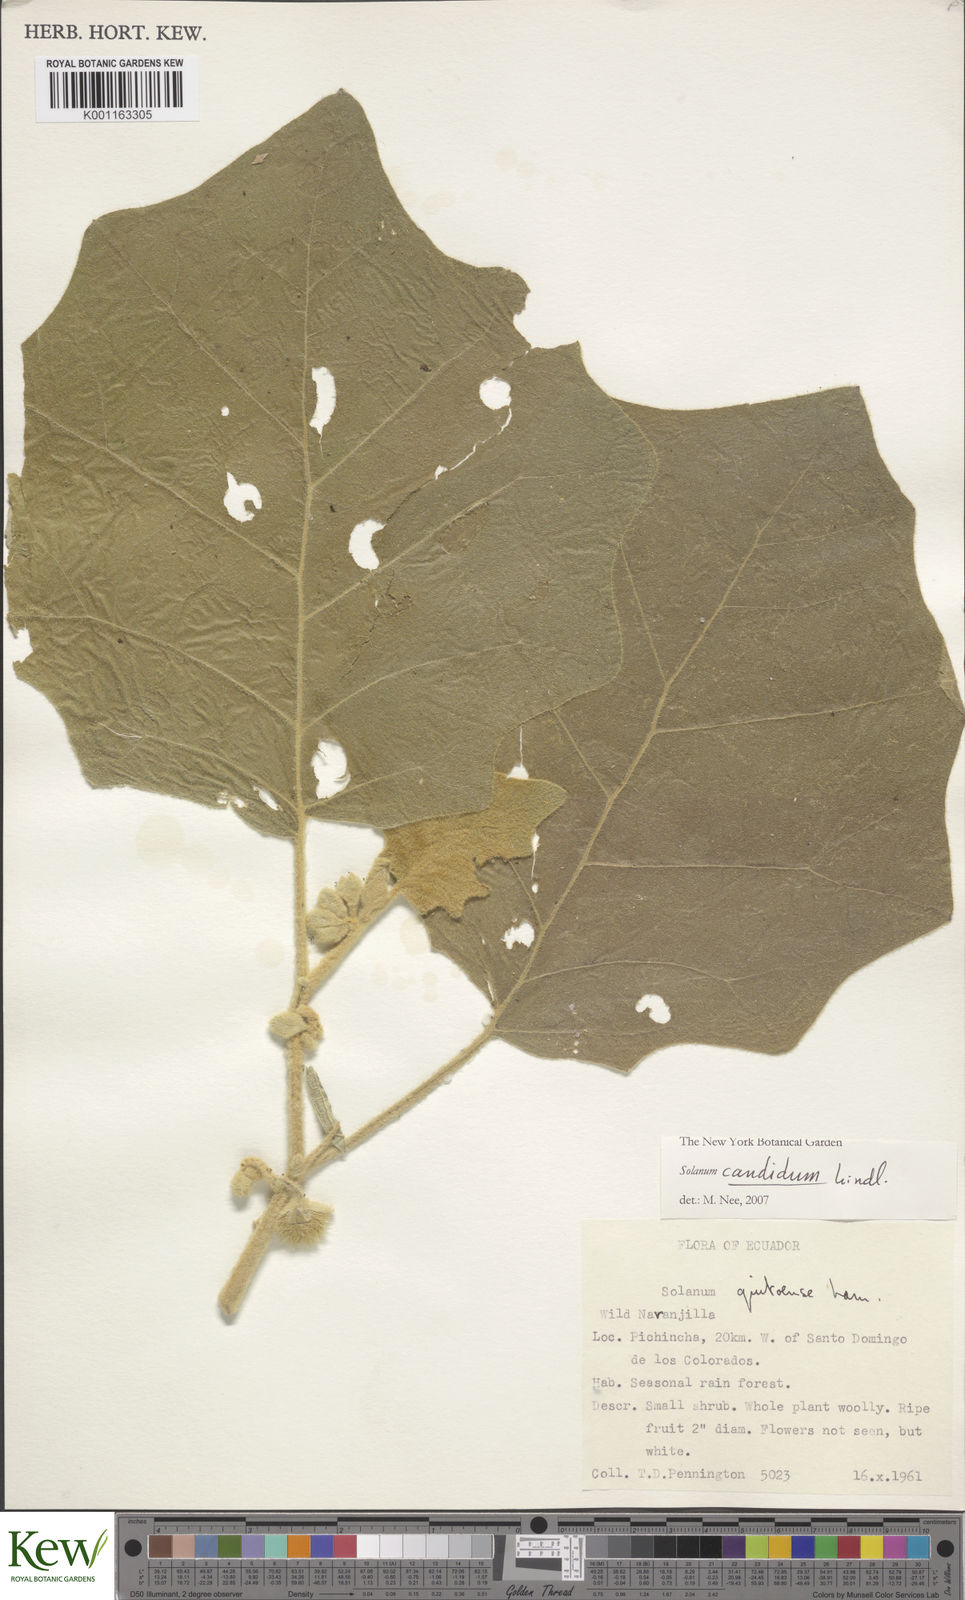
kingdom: Plantae
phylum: Tracheophyta
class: Magnoliopsida
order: Solanales
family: Solanaceae
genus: Solanum
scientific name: Solanum candidum
